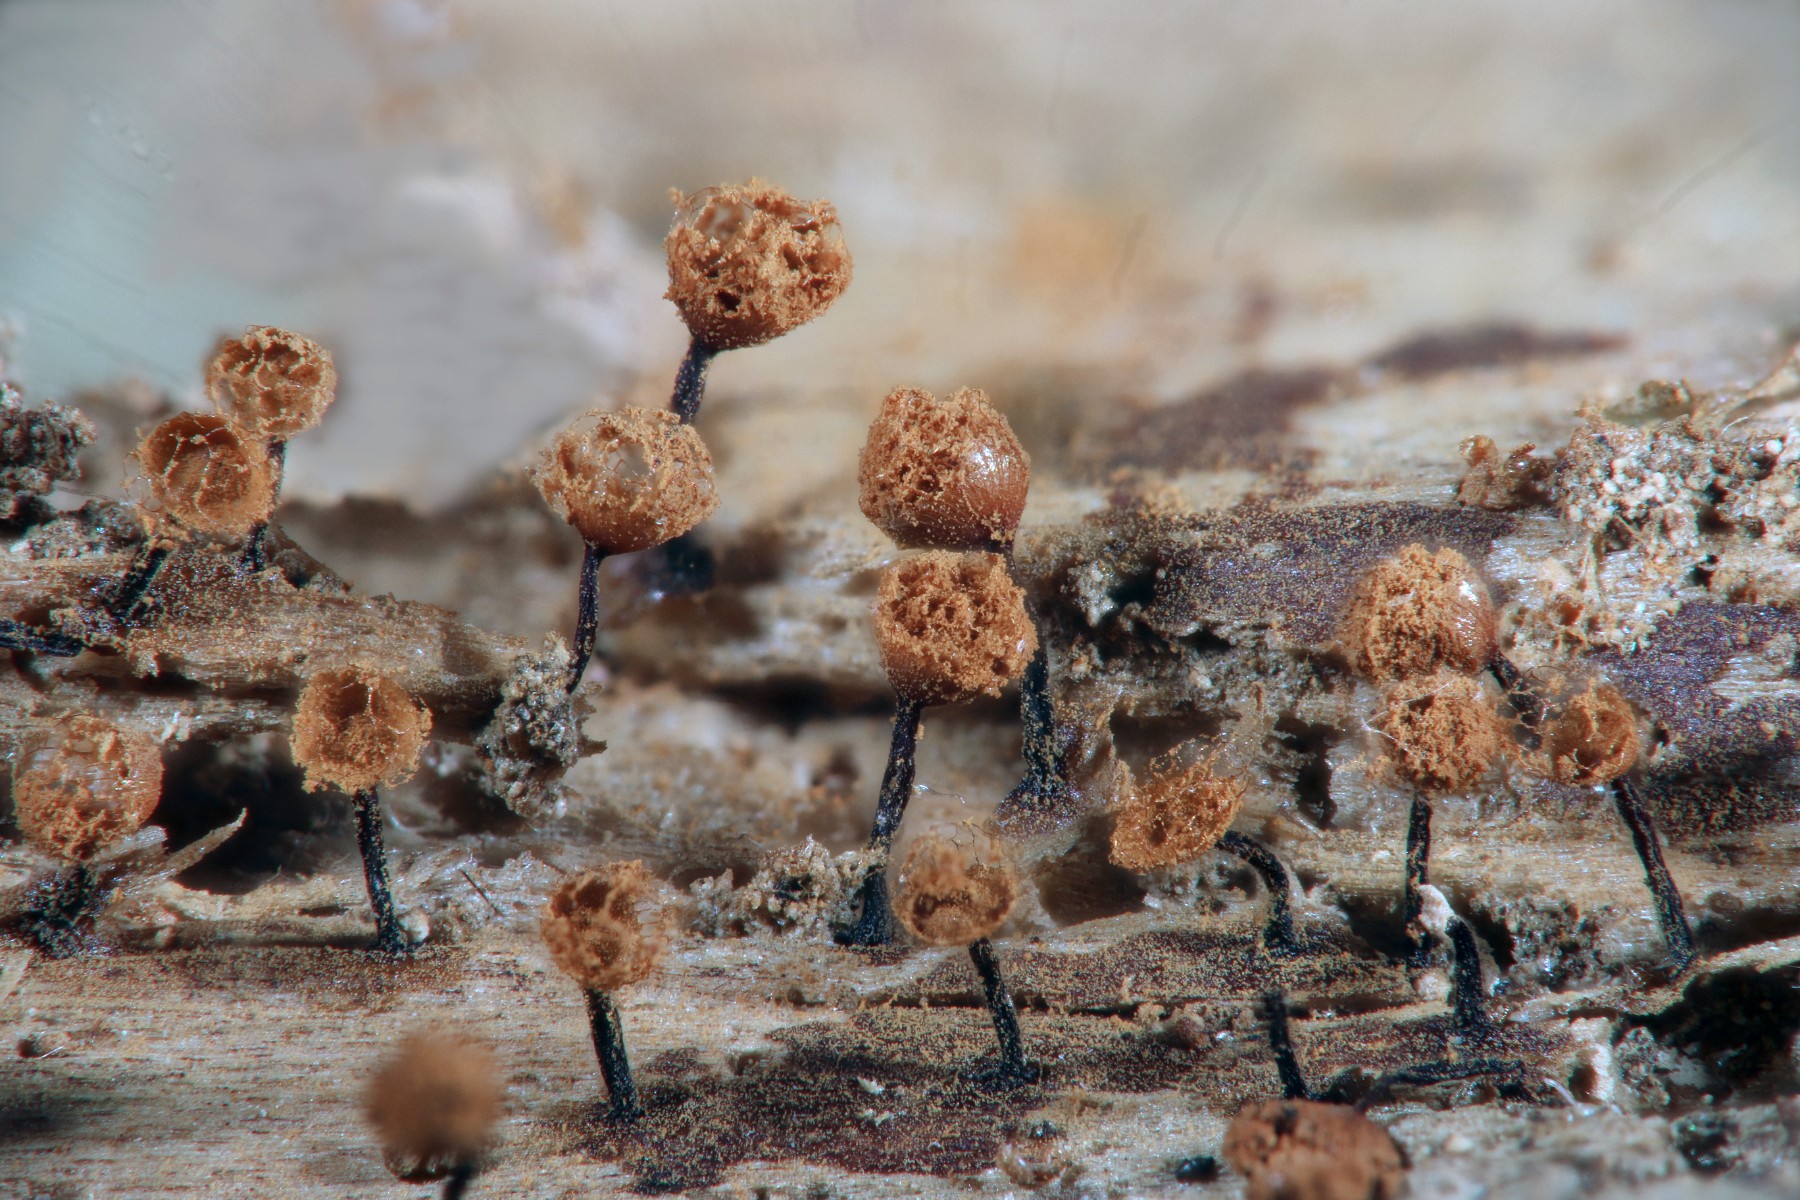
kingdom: Protozoa
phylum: Mycetozoa
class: Myxomycetes
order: Cribrariales
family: Cribrariaceae
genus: Cribraria
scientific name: Cribraria rufa
